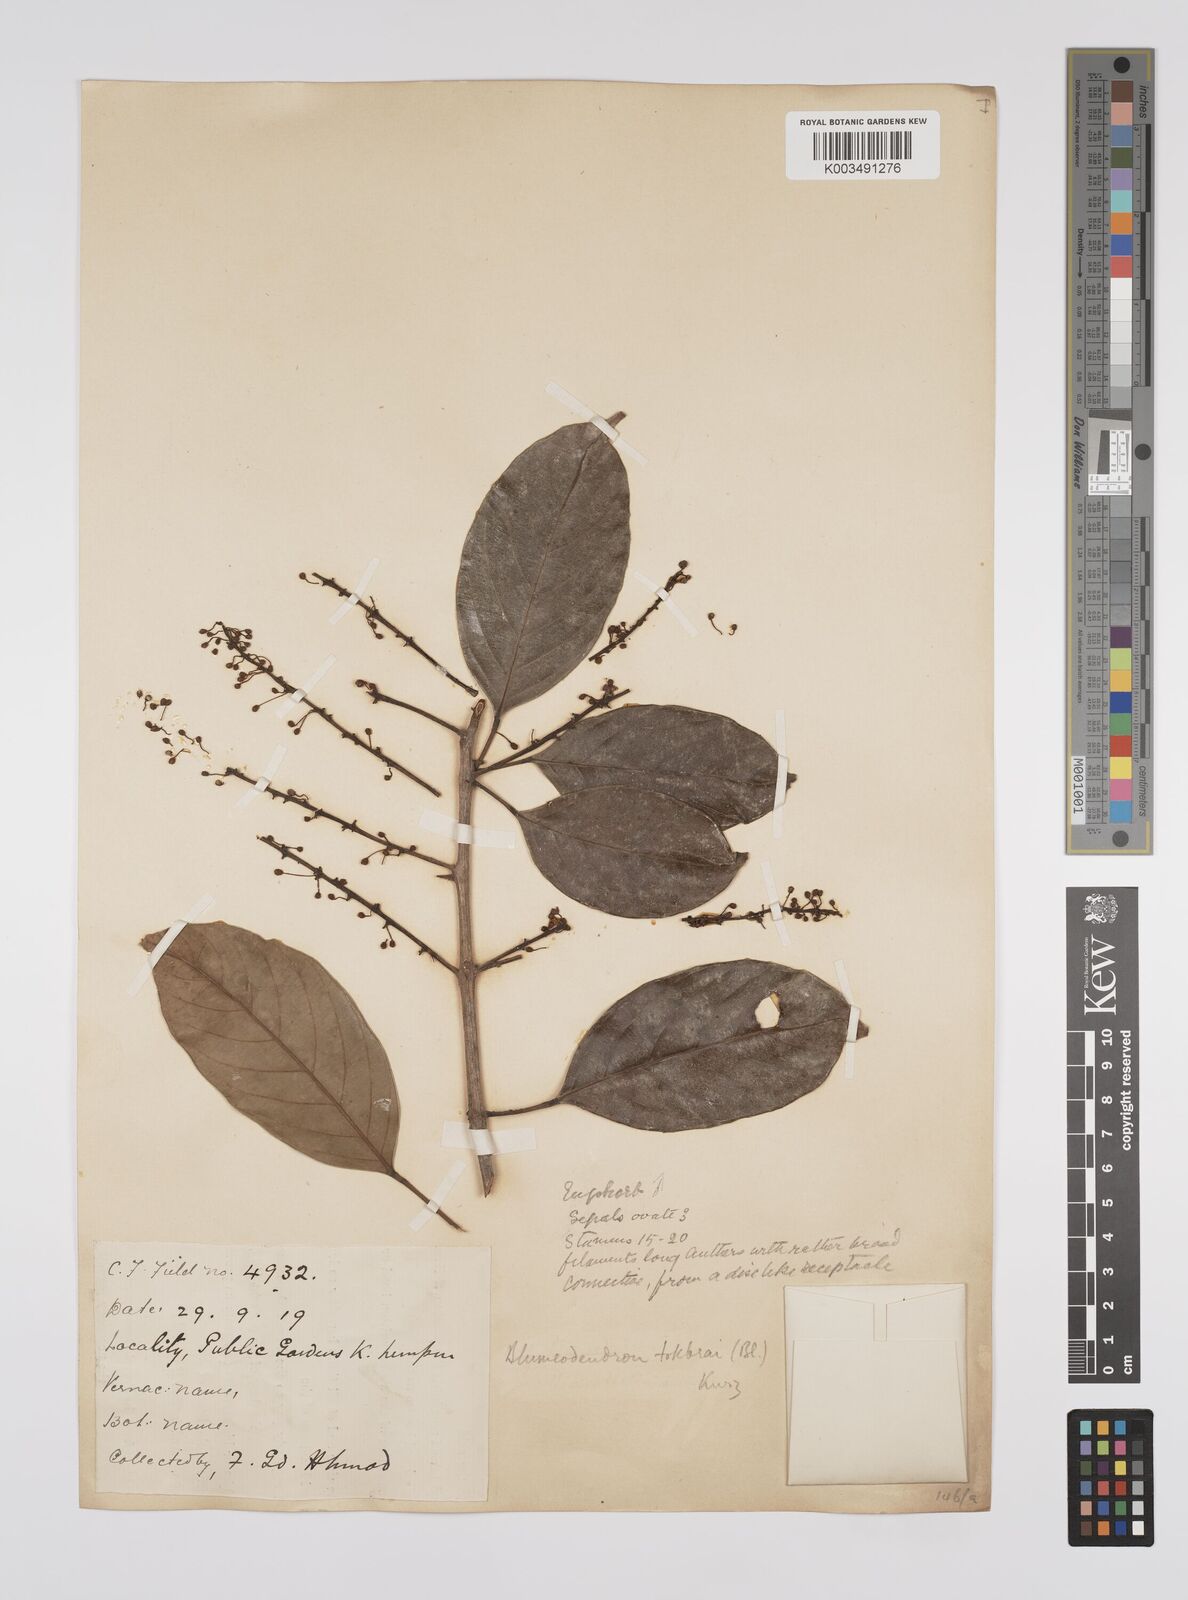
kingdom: Plantae
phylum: Tracheophyta
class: Magnoliopsida
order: Malpighiales
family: Euphorbiaceae
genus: Blumeodendron
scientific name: Blumeodendron tokbrai
